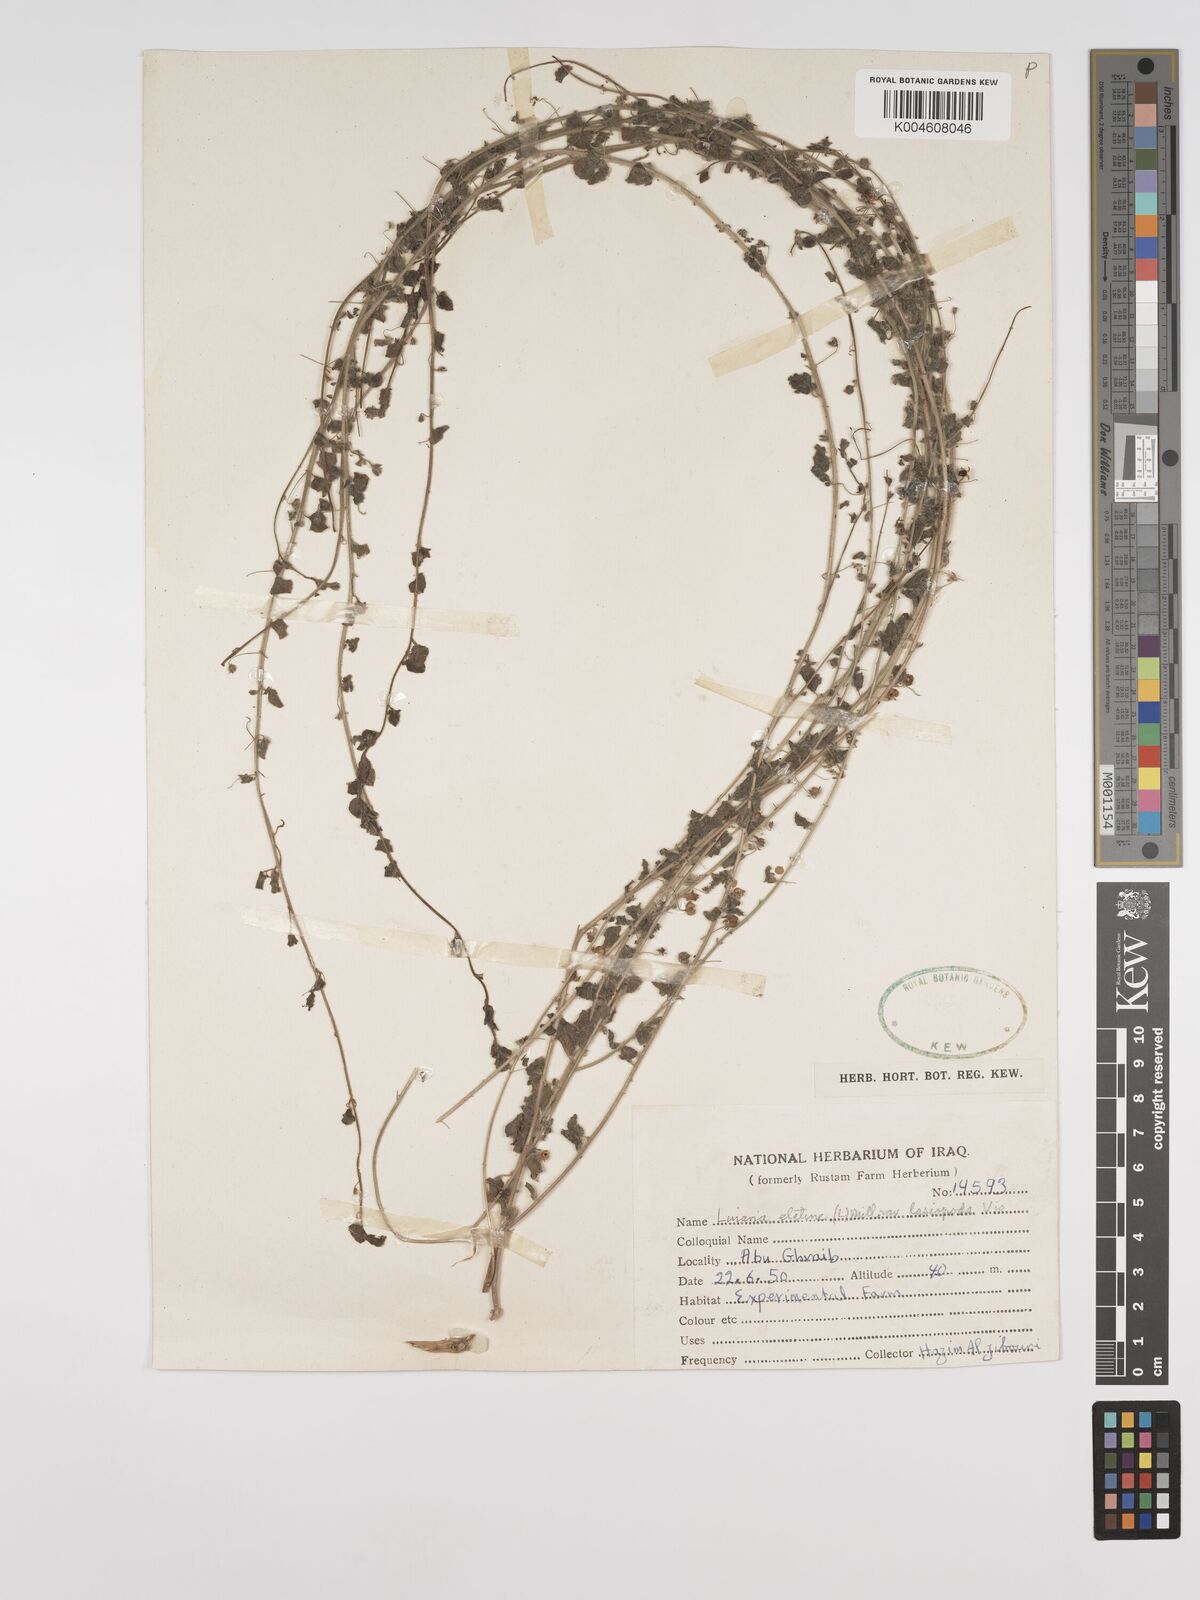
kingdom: Plantae
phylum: Tracheophyta
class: Magnoliopsida
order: Lamiales
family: Plantaginaceae
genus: Kickxia
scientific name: Kickxia elatine
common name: Sharp-leaved fluellen
